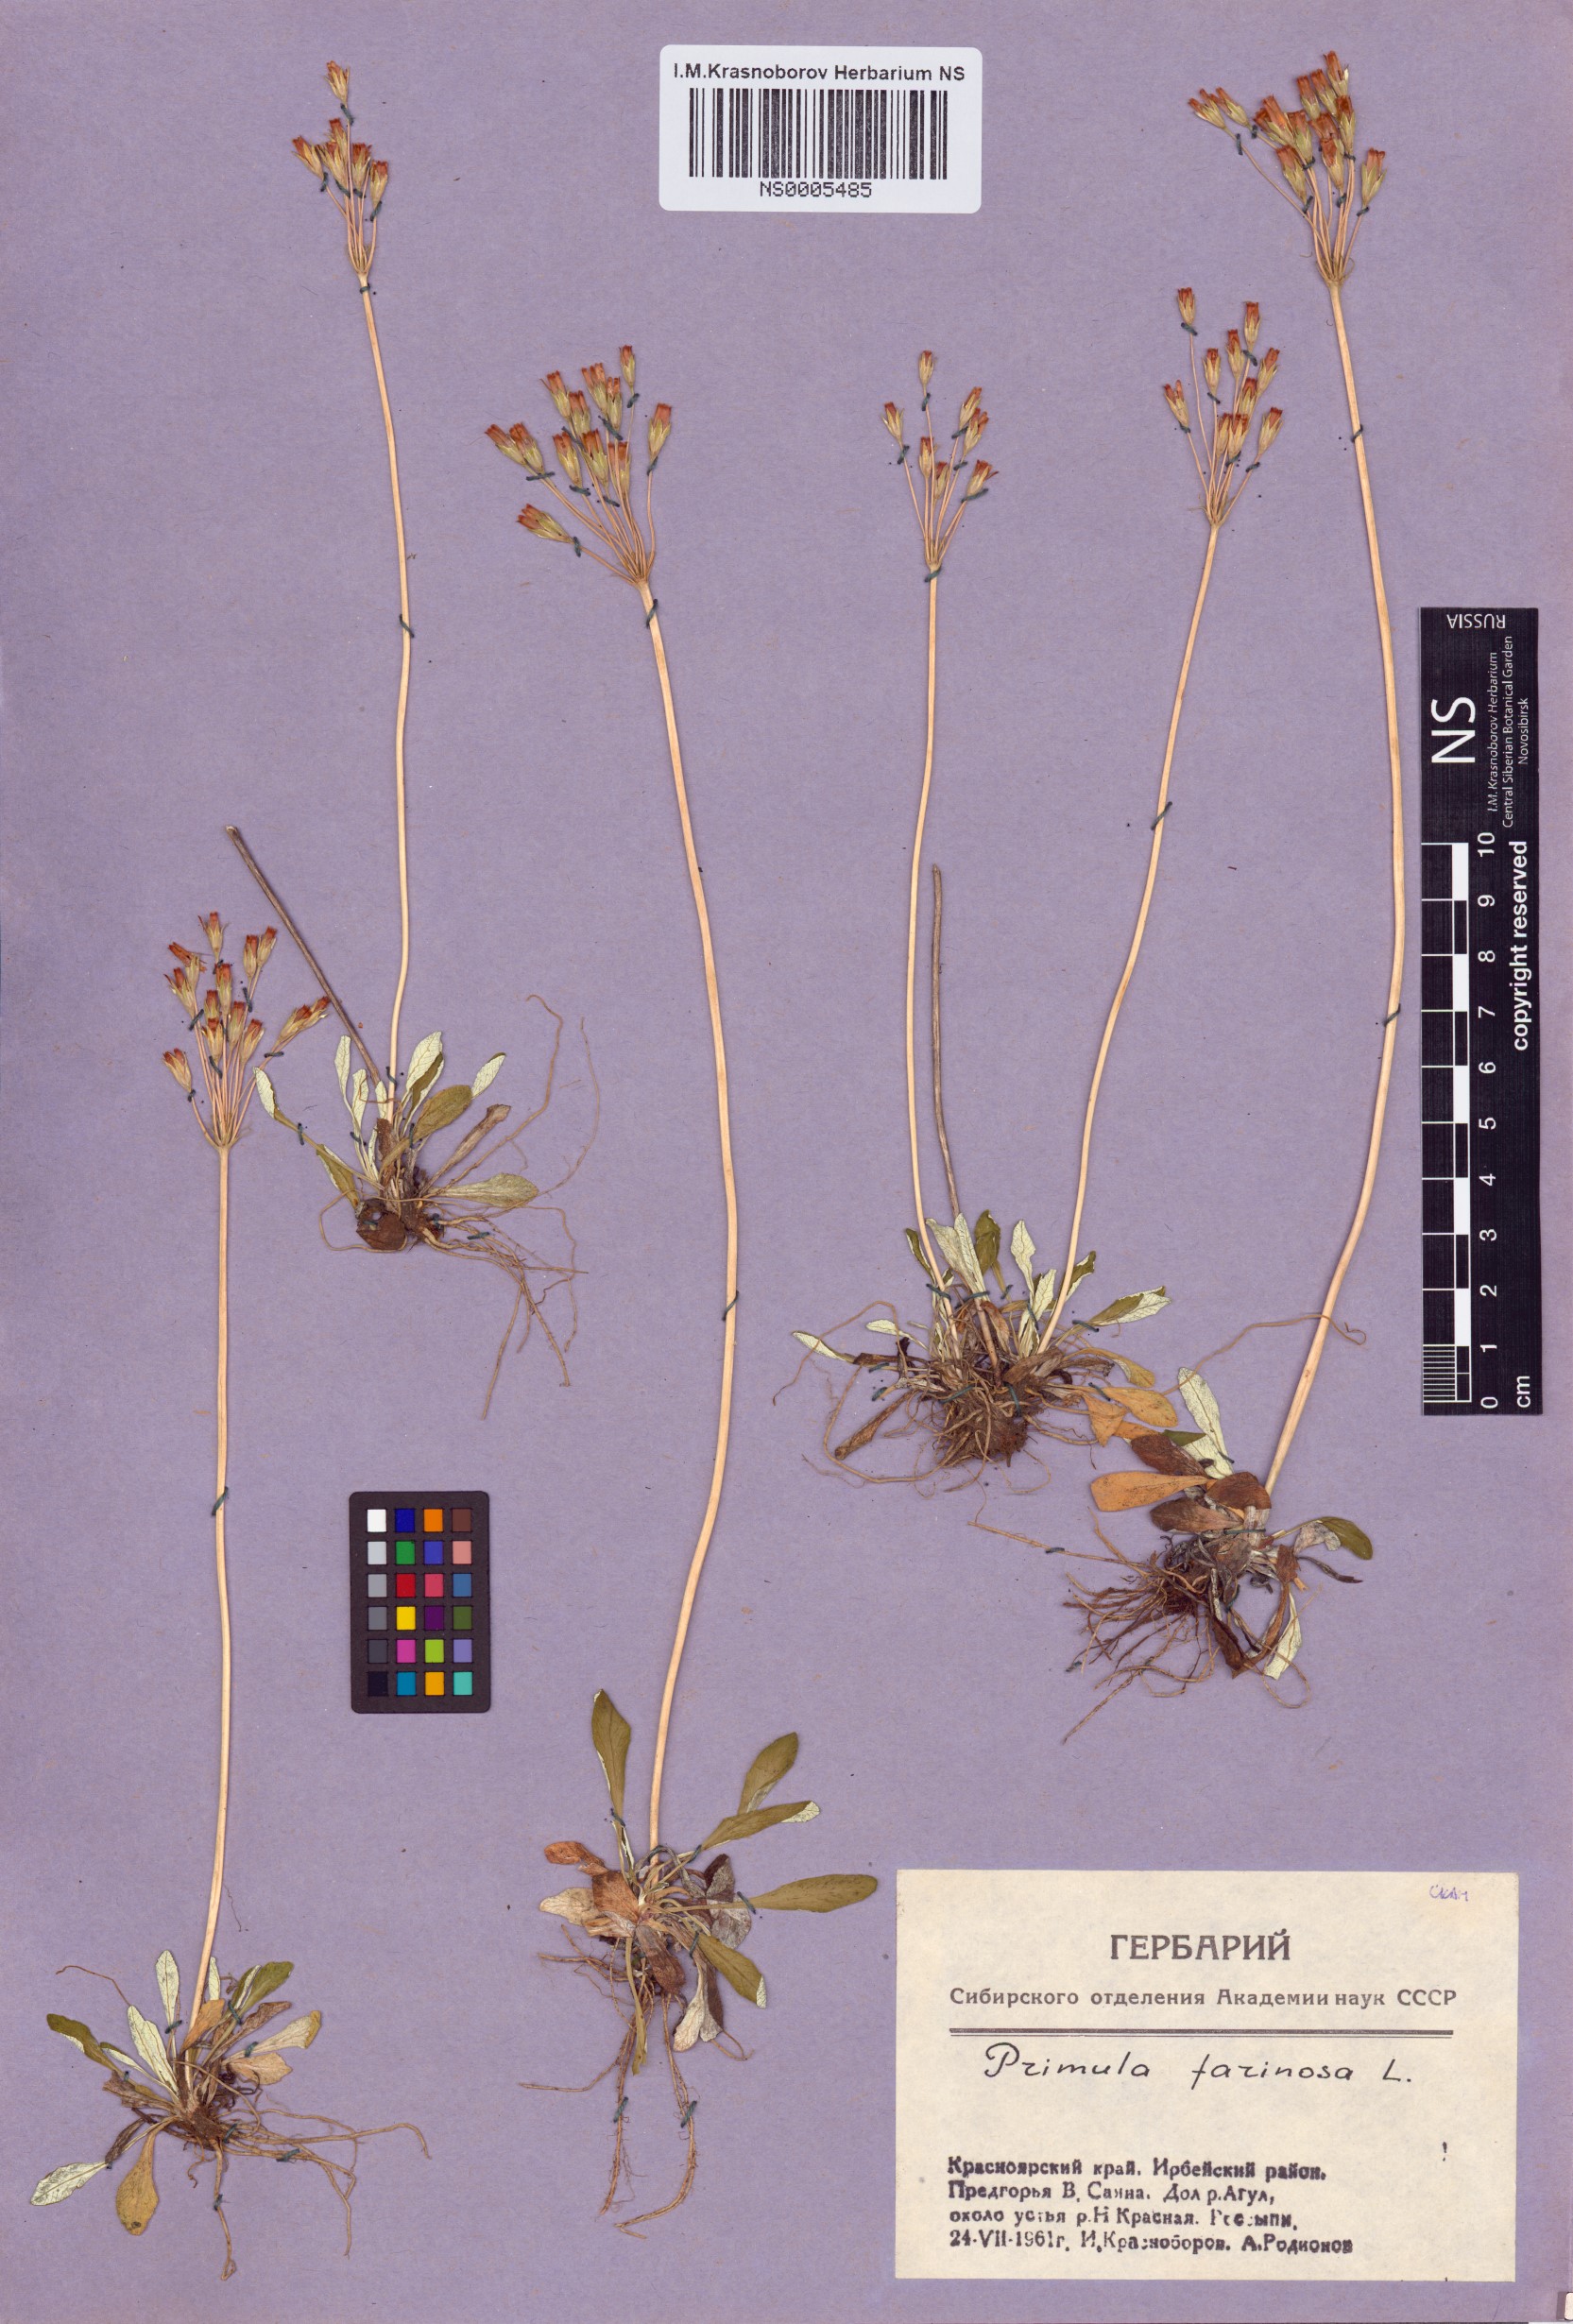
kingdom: Plantae
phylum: Tracheophyta
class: Magnoliopsida
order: Ericales
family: Primulaceae
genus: Primula
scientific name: Primula farinosa
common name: Bird's-eye primrose
